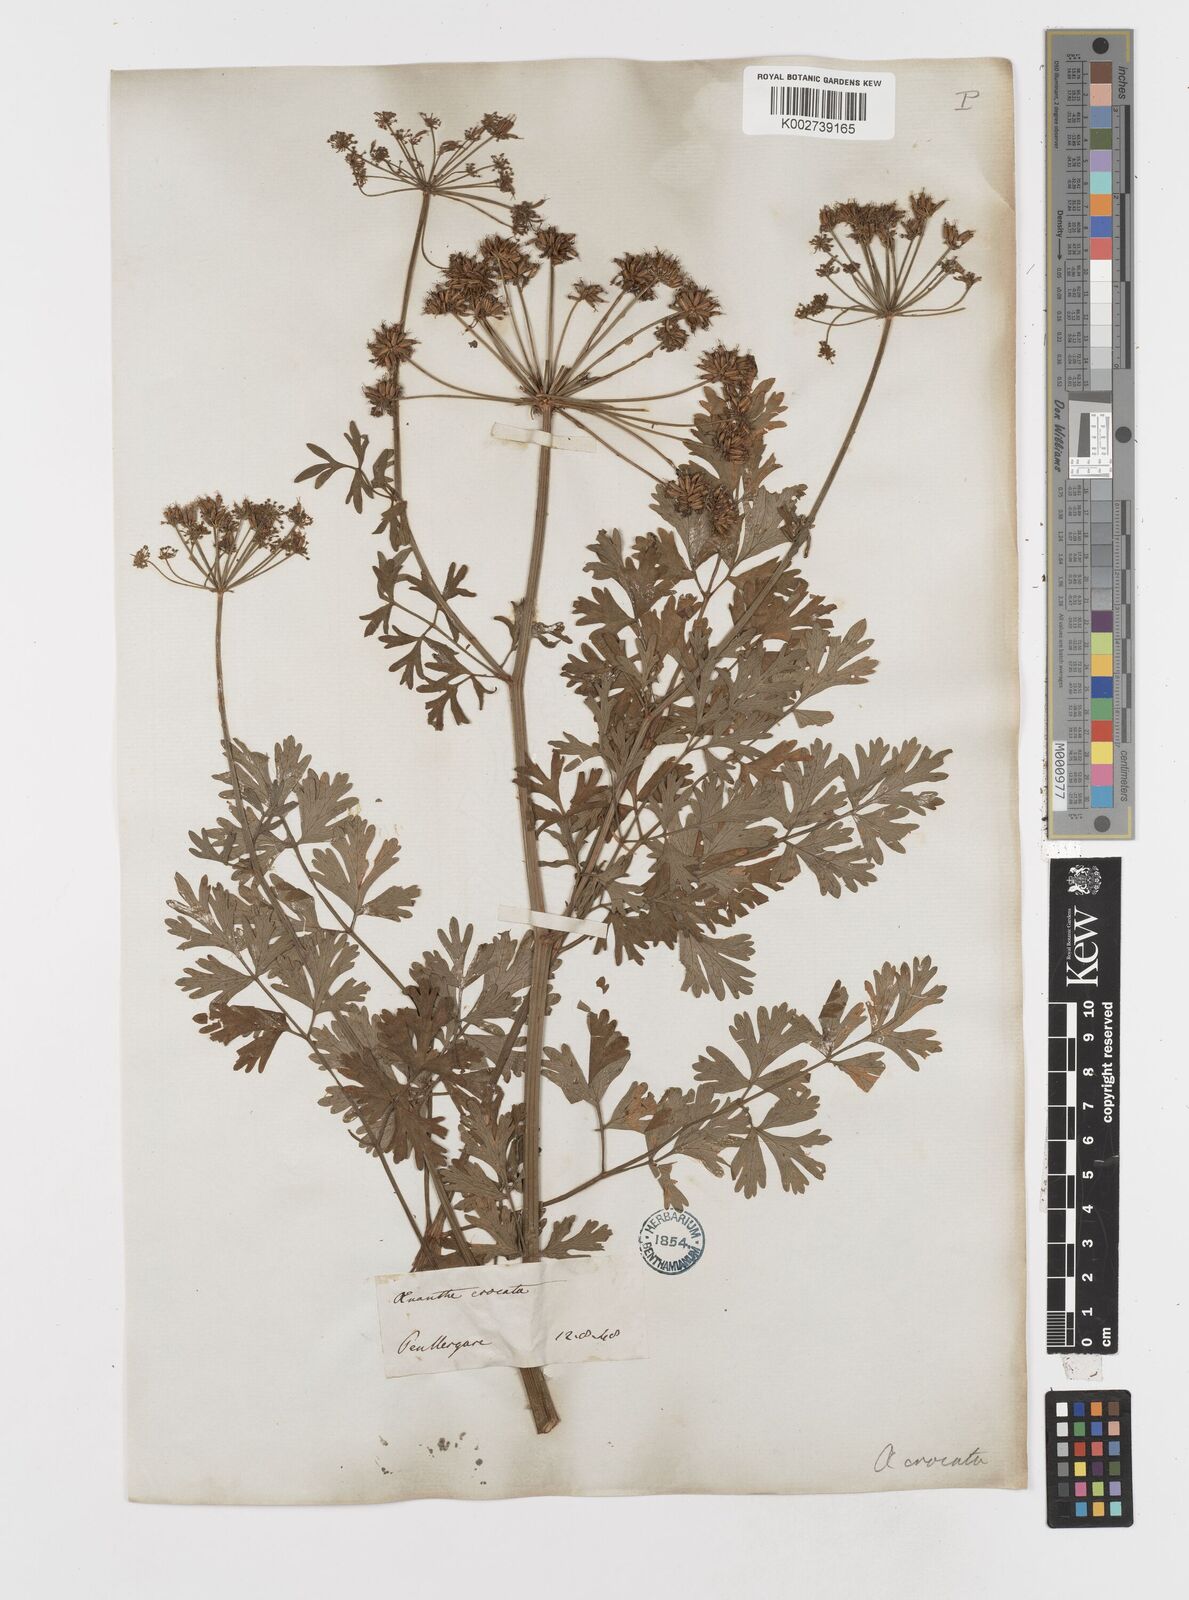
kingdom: Plantae
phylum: Tracheophyta
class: Magnoliopsida
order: Apiales
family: Apiaceae
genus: Oenanthe
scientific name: Oenanthe crocata
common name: Hemlock water-dropwort
